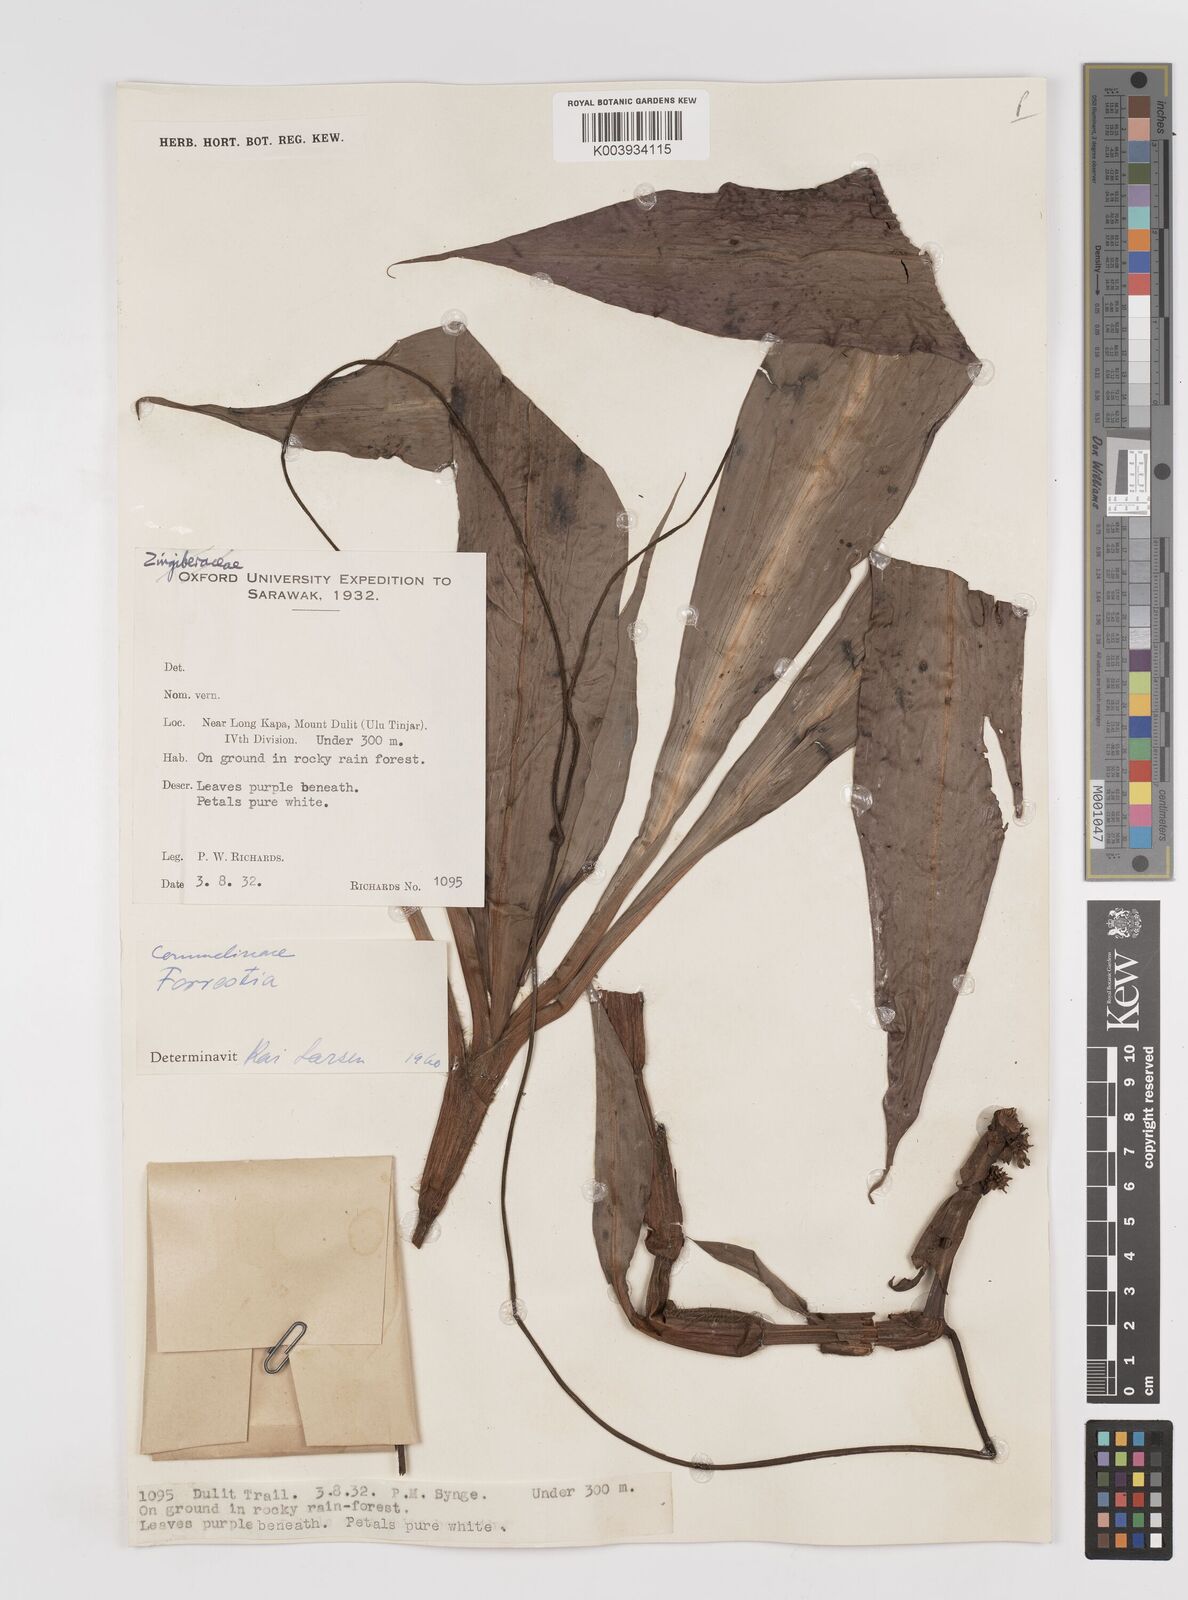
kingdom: Plantae
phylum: Tracheophyta
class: Liliopsida
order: Commelinales
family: Commelinaceae
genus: Amischotolype
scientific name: Amischotolype
